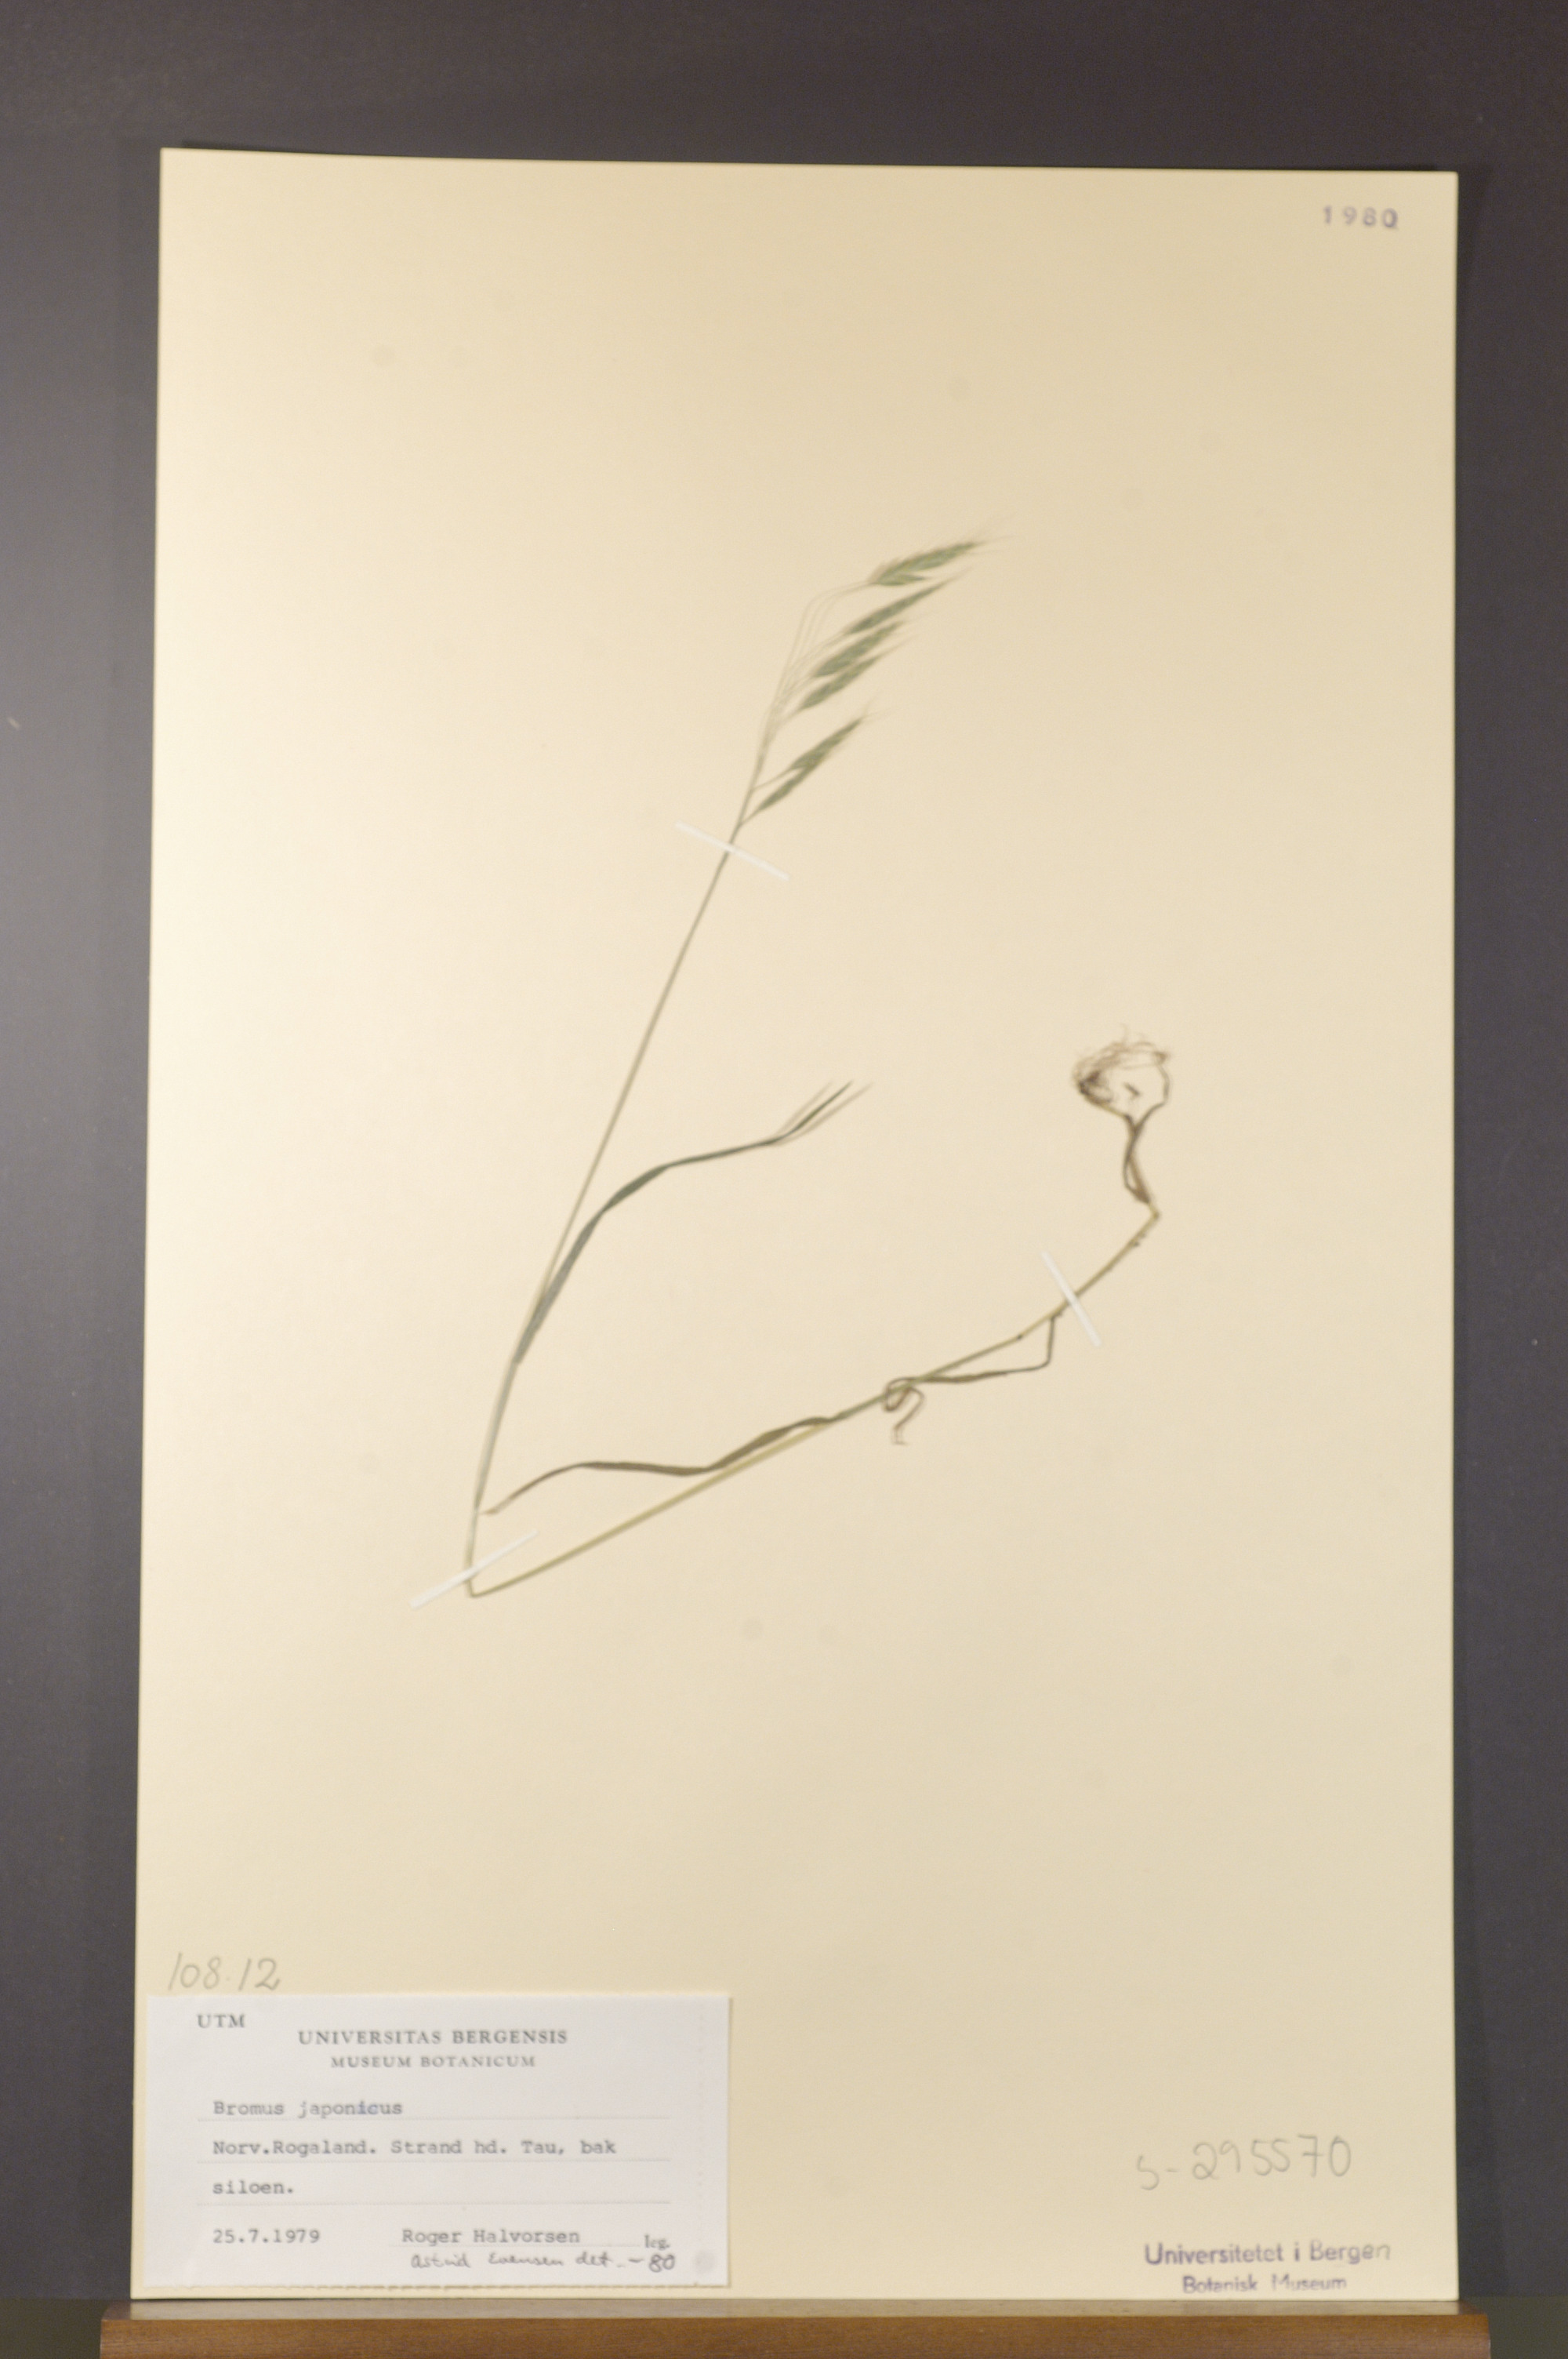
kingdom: Plantae
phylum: Tracheophyta
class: Liliopsida
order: Poales
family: Poaceae
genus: Bromus
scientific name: Bromus japonicus
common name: Japanese brome
